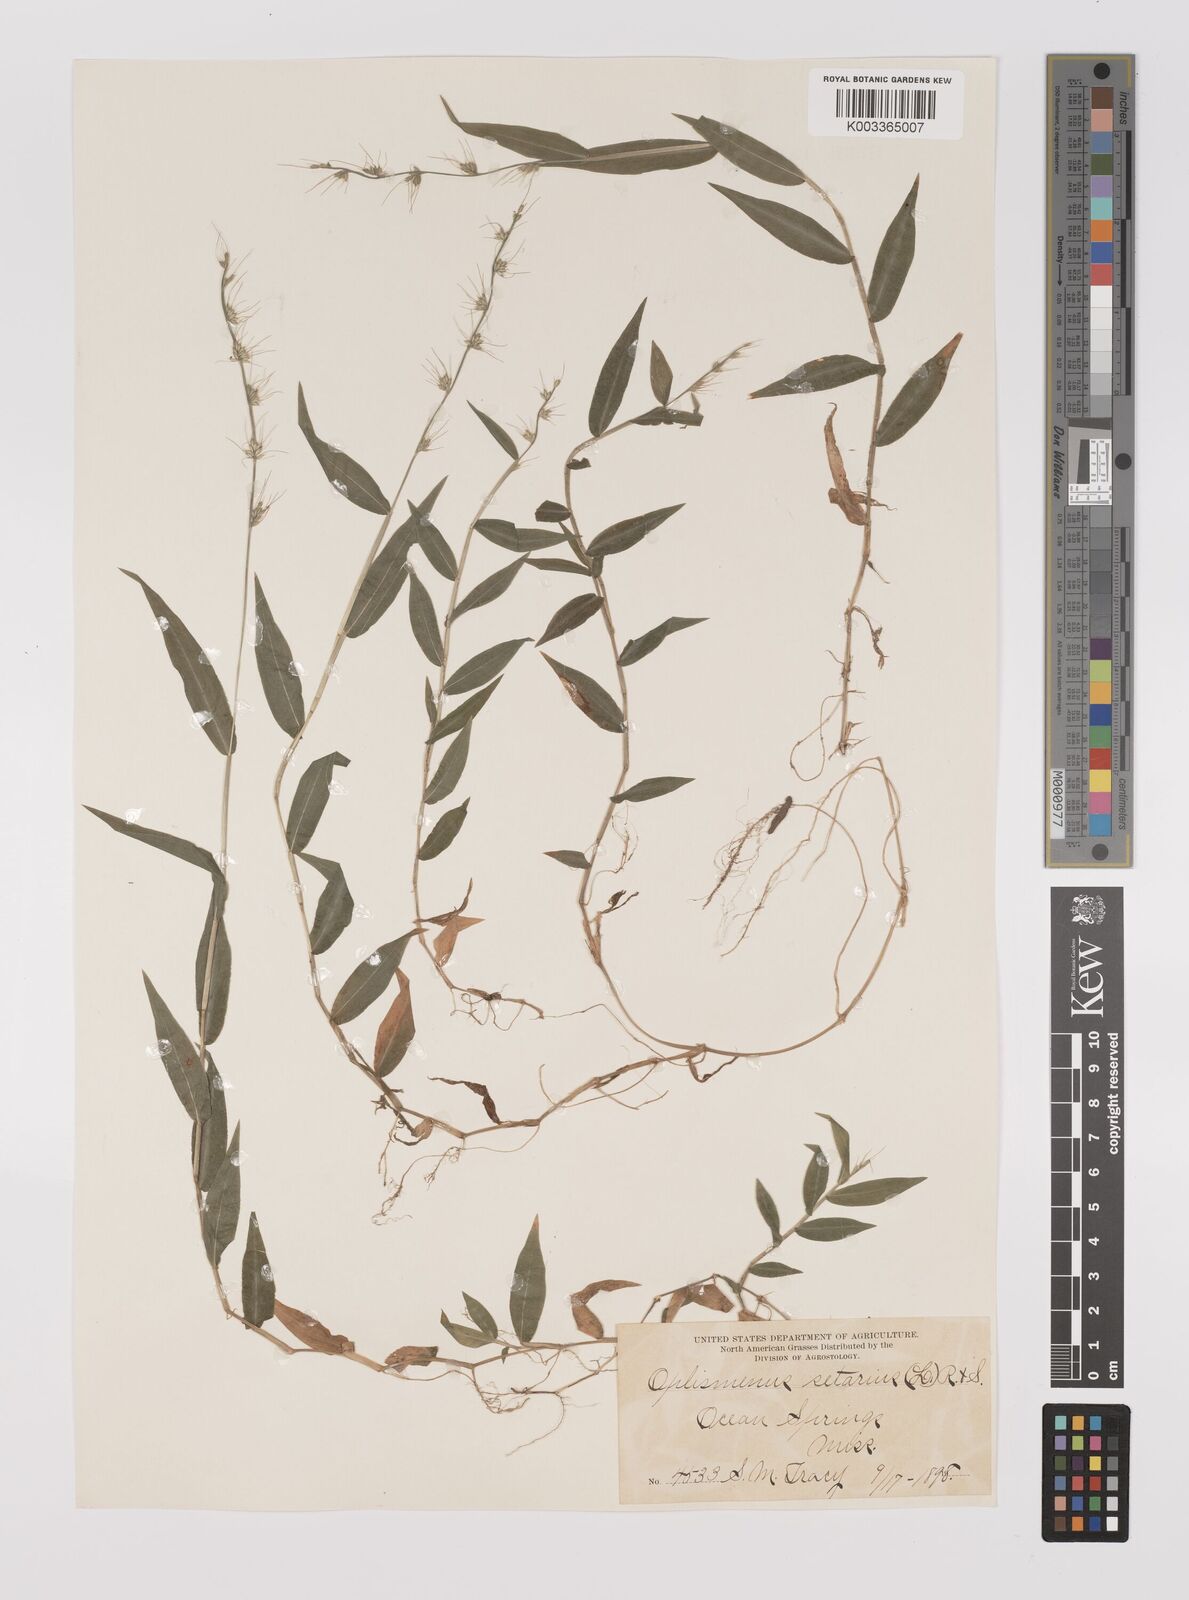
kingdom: Plantae
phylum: Tracheophyta
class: Liliopsida
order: Poales
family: Poaceae
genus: Oplismenus
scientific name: Oplismenus undulatifolius
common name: Wavyleaf basketgrass
